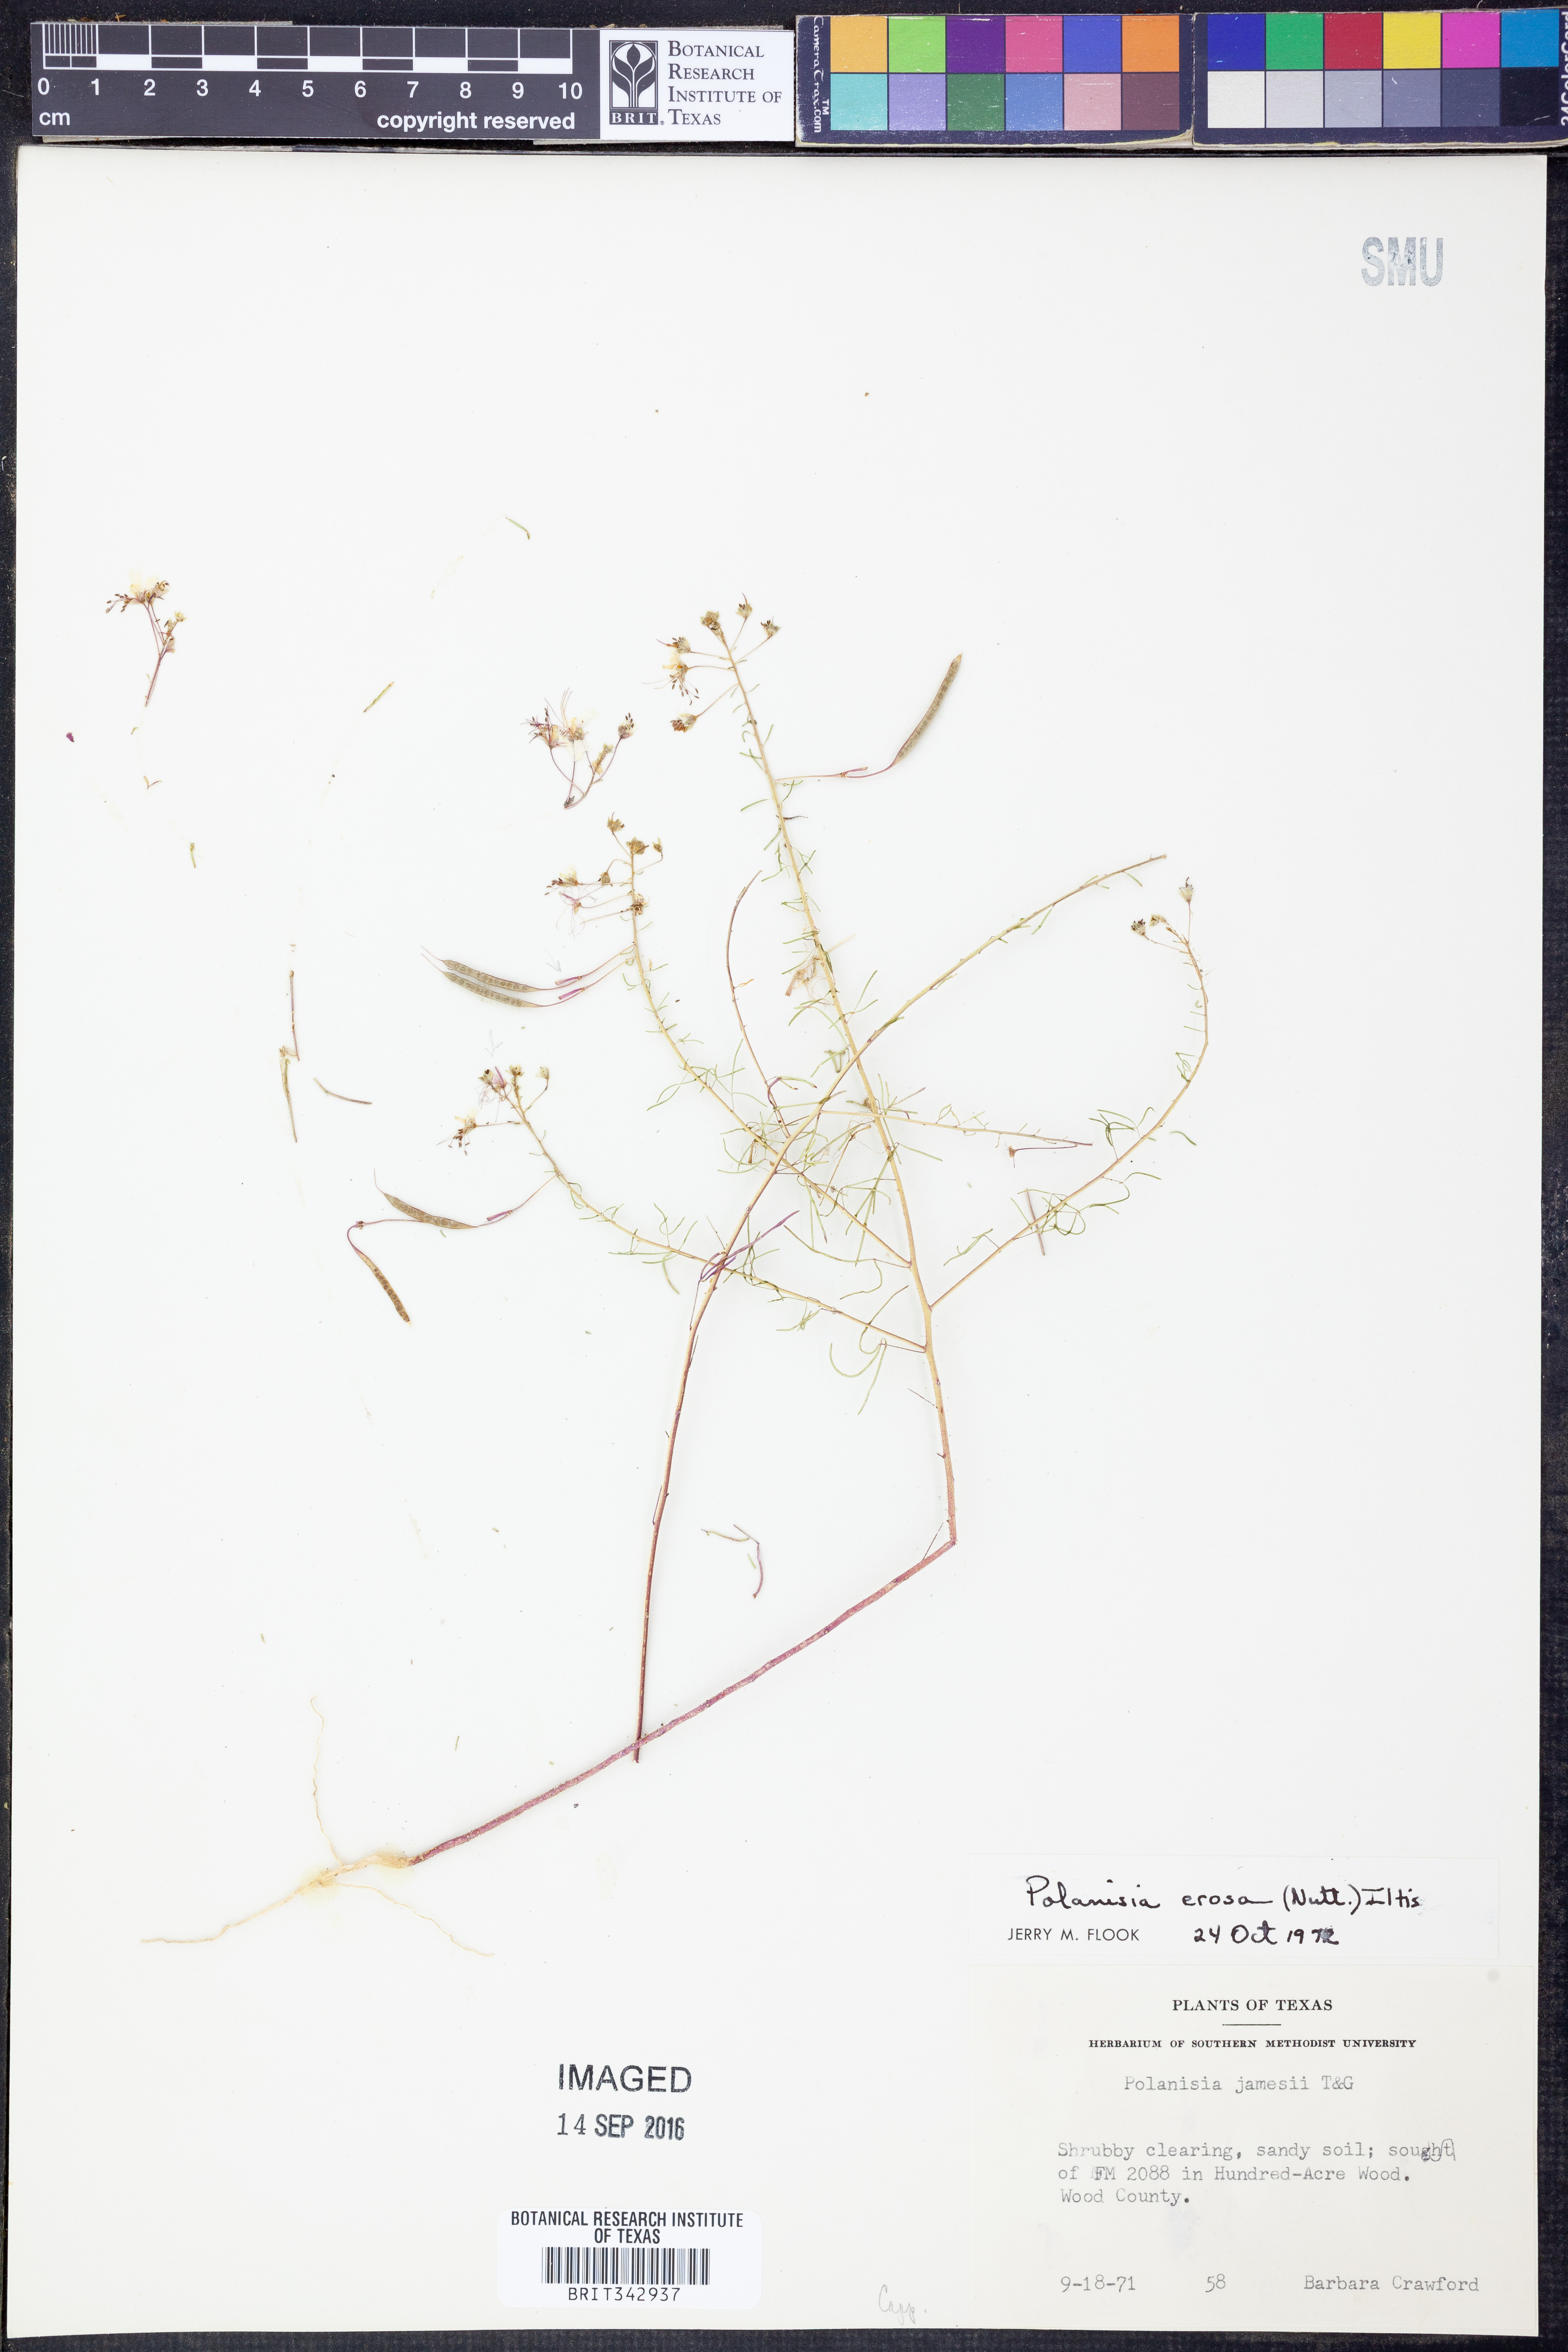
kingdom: Plantae
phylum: Tracheophyta
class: Magnoliopsida
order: Brassicales
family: Cleomaceae
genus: Polanisia
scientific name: Polanisia erosa
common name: Large clammyweed
